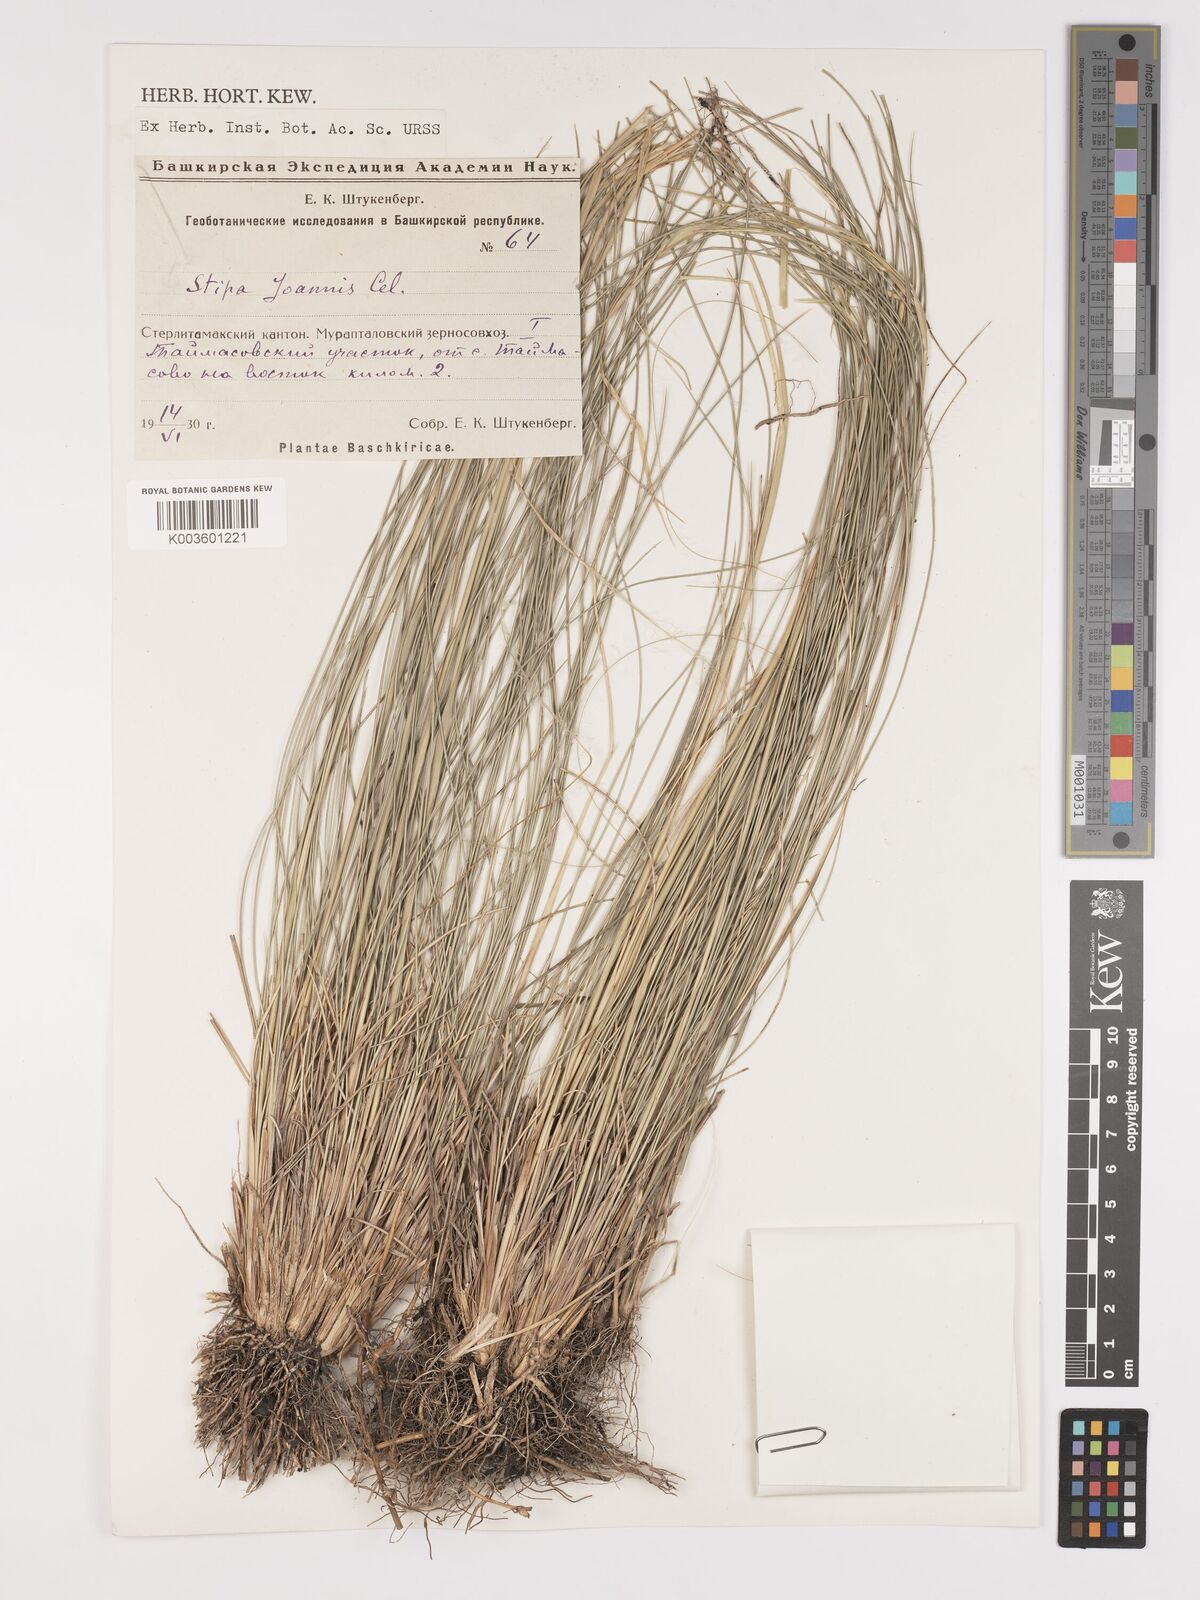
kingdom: Plantae
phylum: Tracheophyta
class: Liliopsida
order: Poales
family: Poaceae
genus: Stipa
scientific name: Stipa pennata
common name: European feather grass
